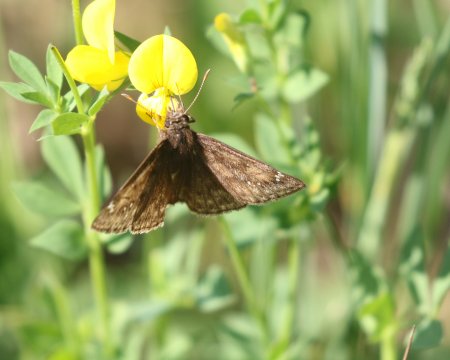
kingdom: Animalia
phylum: Arthropoda
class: Insecta
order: Lepidoptera
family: Hesperiidae
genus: Gesta
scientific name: Gesta
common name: Juvenal's Duskywing
